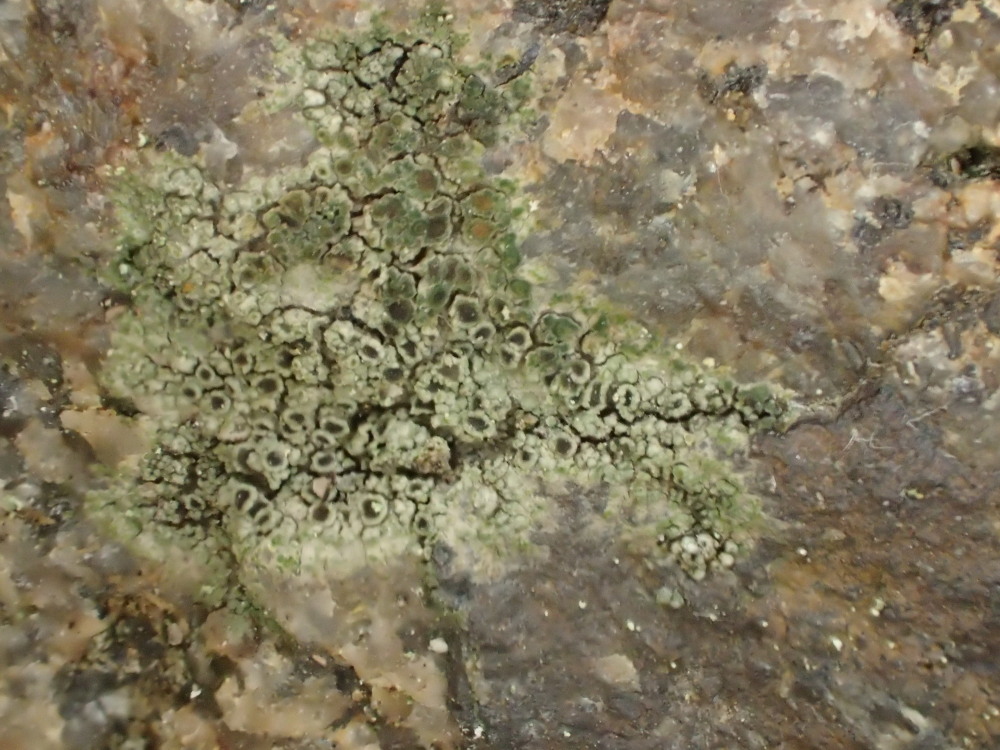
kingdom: Fungi
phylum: Ascomycota
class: Lecanoromycetes
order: Caliciales
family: Physciaceae
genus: Rinodina
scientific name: Rinodina oleae
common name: kyst-knaplav
